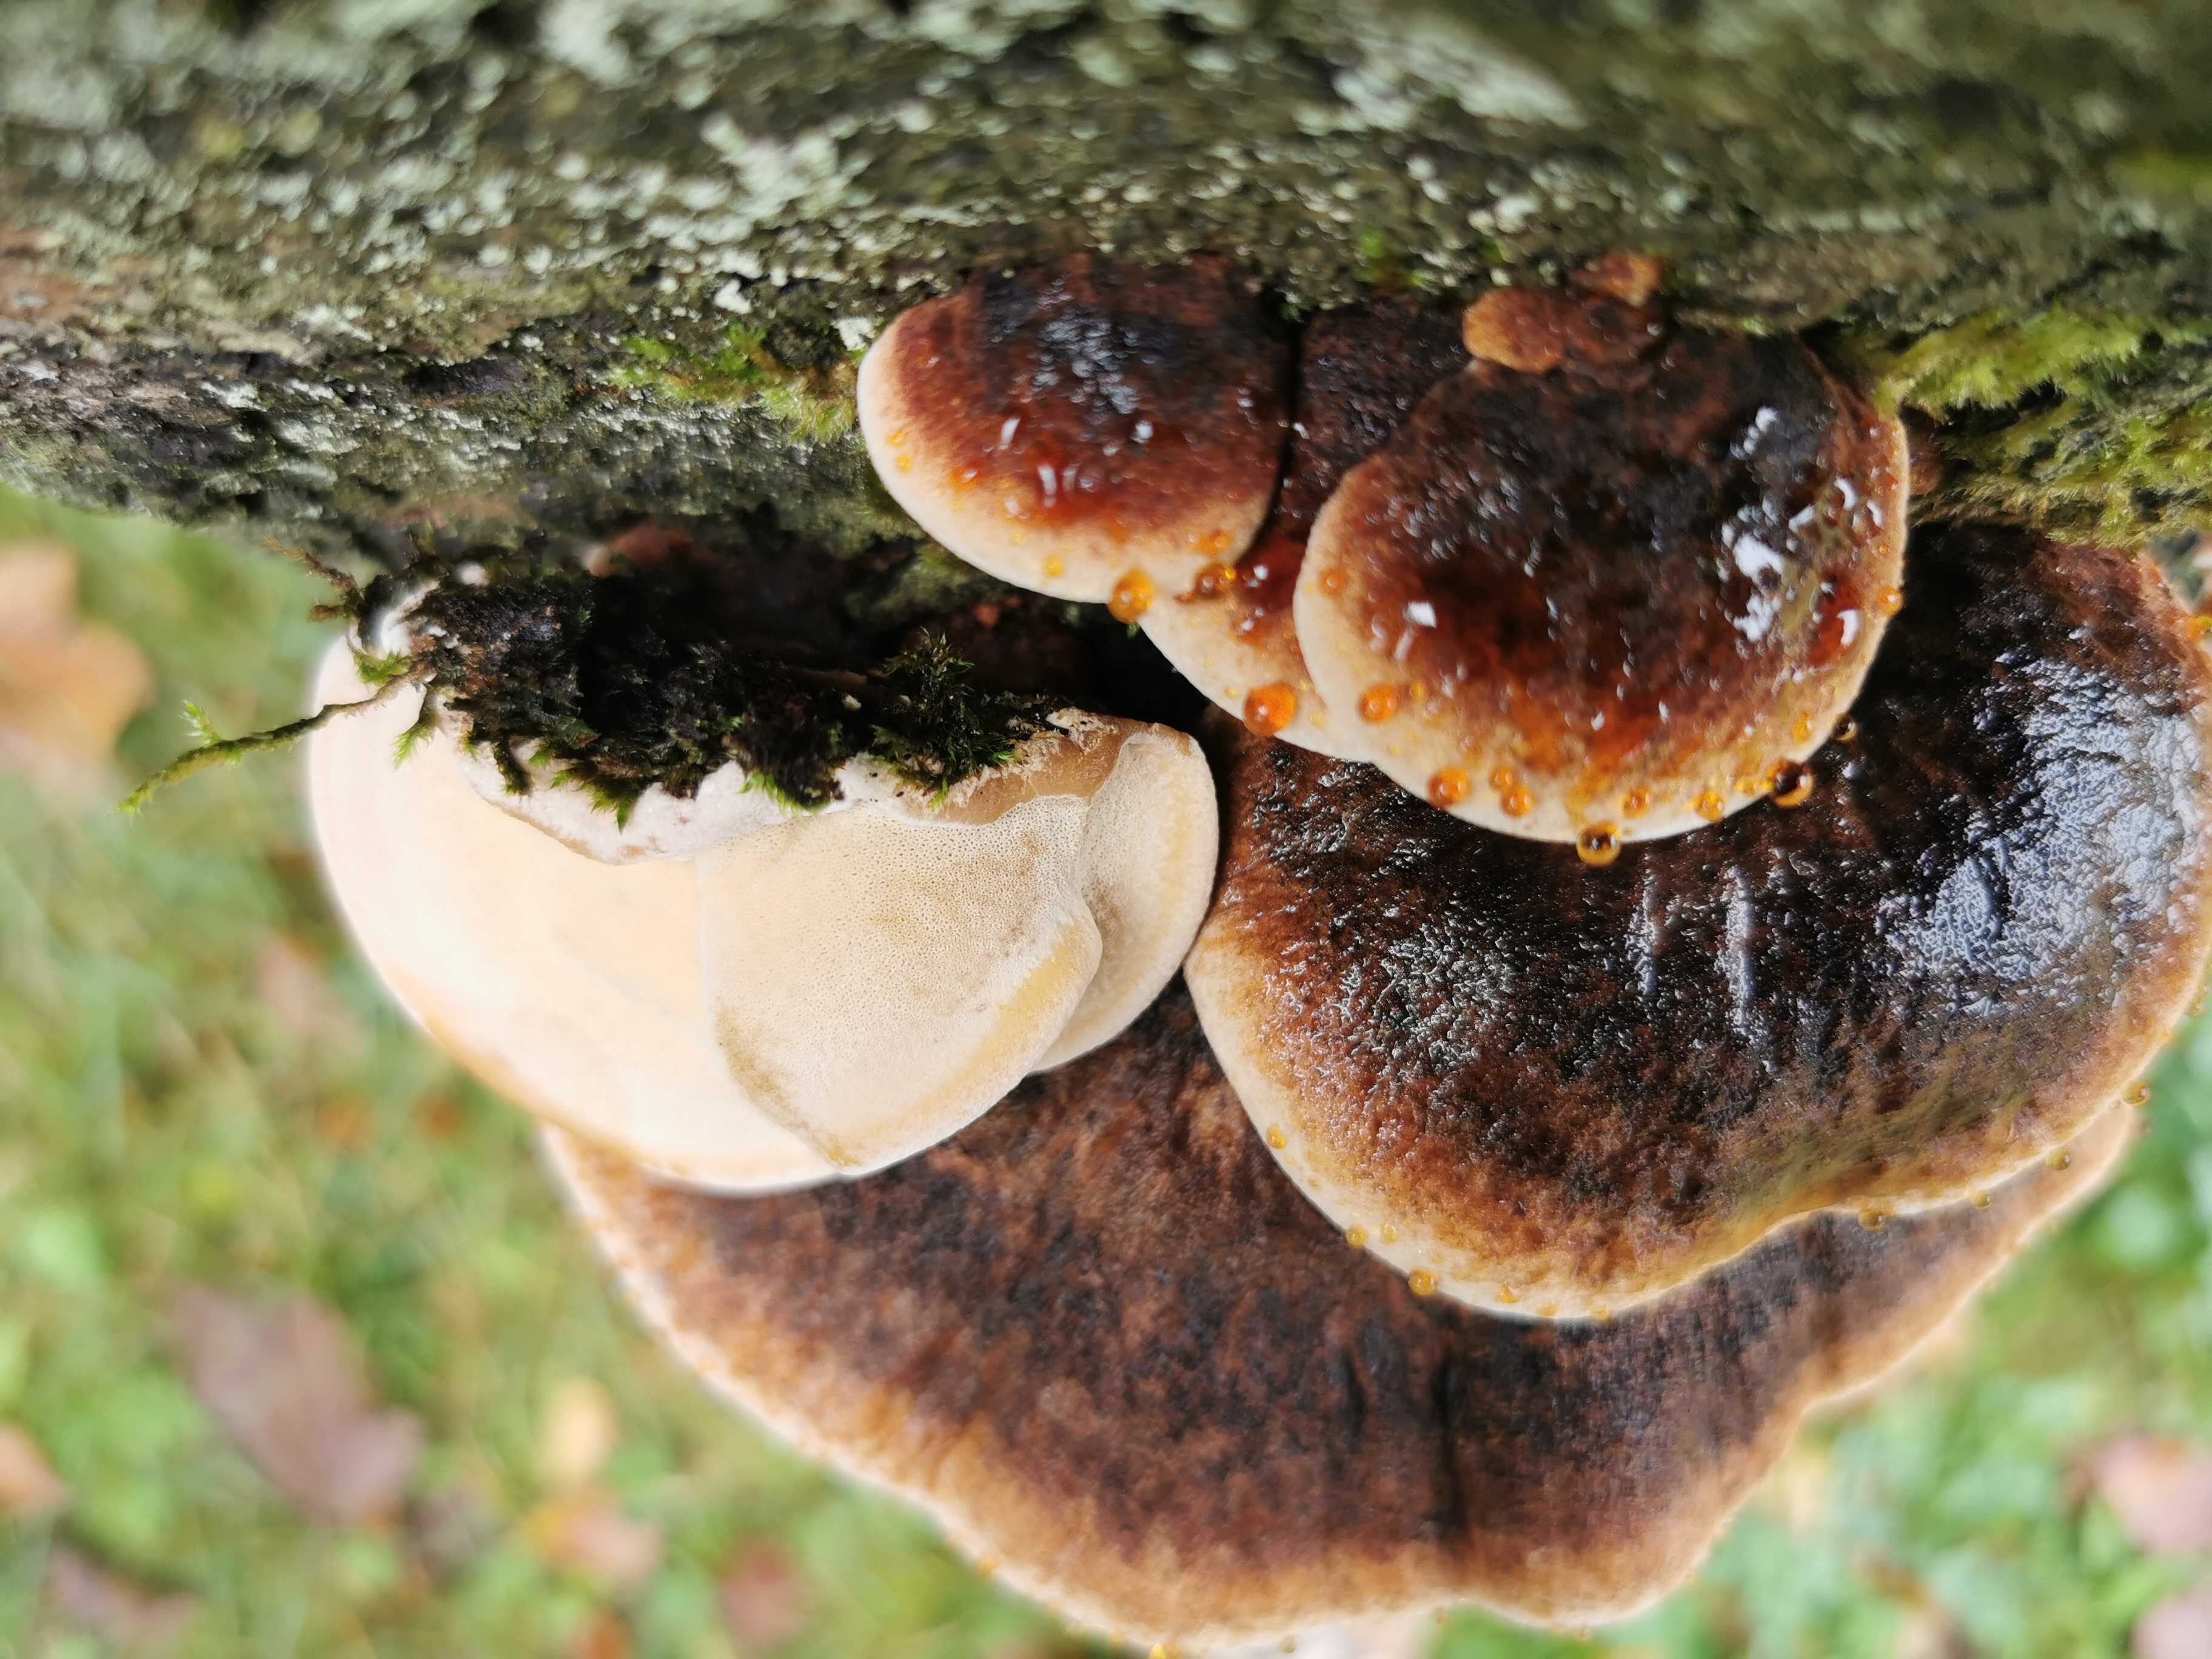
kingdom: Fungi
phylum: Basidiomycota
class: Agaricomycetes
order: Polyporales
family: Ischnodermataceae
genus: Ischnoderma
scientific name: Ischnoderma benzoinum
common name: gran-tjæreporesvamp
